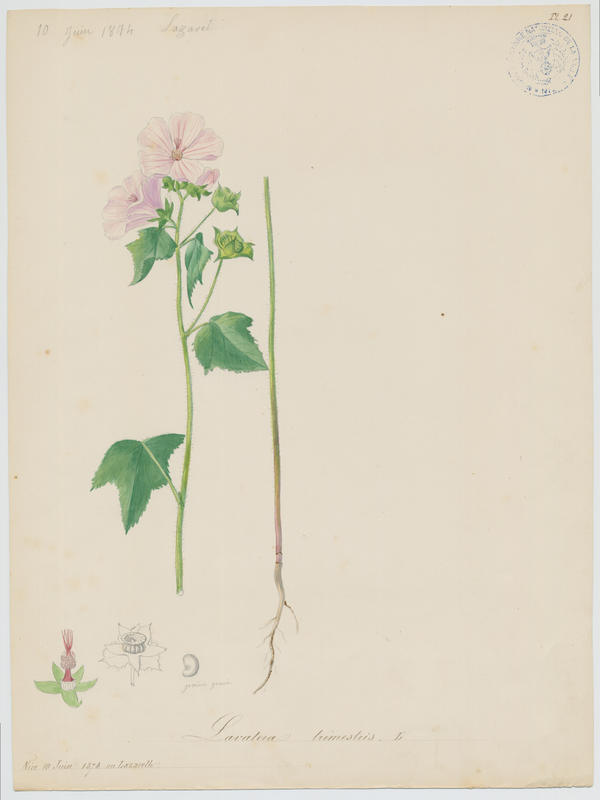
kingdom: Plantae
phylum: Tracheophyta
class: Magnoliopsida
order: Malvales
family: Malvaceae
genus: Malva
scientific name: Malva trimestris
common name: Royal mallow
